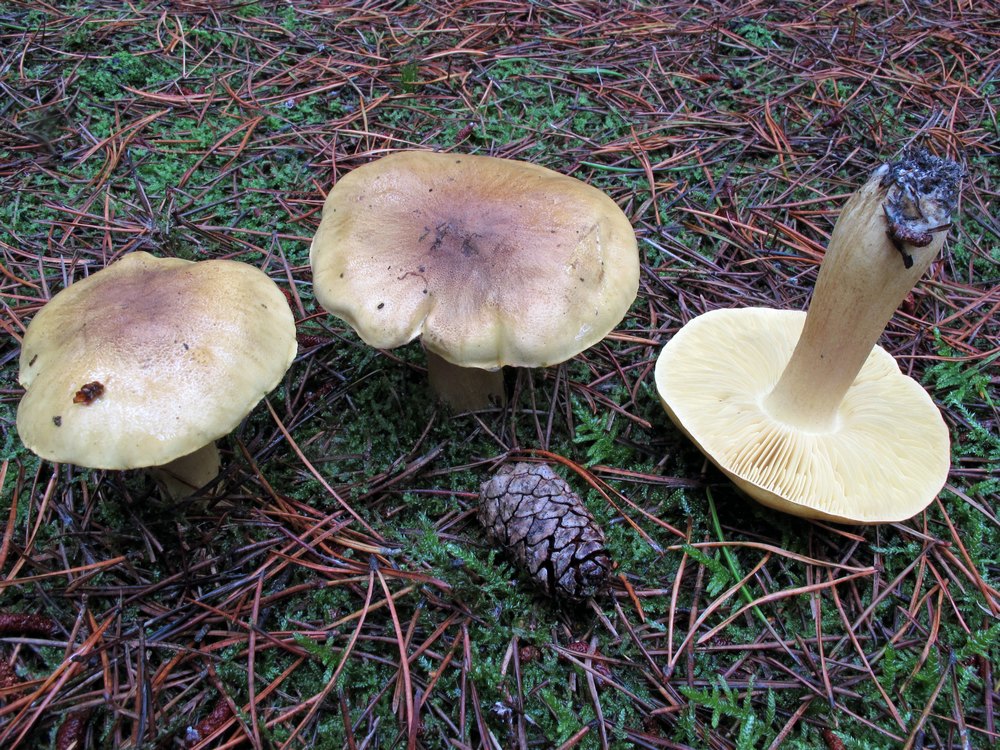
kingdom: Fungi
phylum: Basidiomycota
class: Agaricomycetes
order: Agaricales
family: Tricholomataceae
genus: Tricholoma
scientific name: Tricholoma equestre
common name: ægte ridderhat
